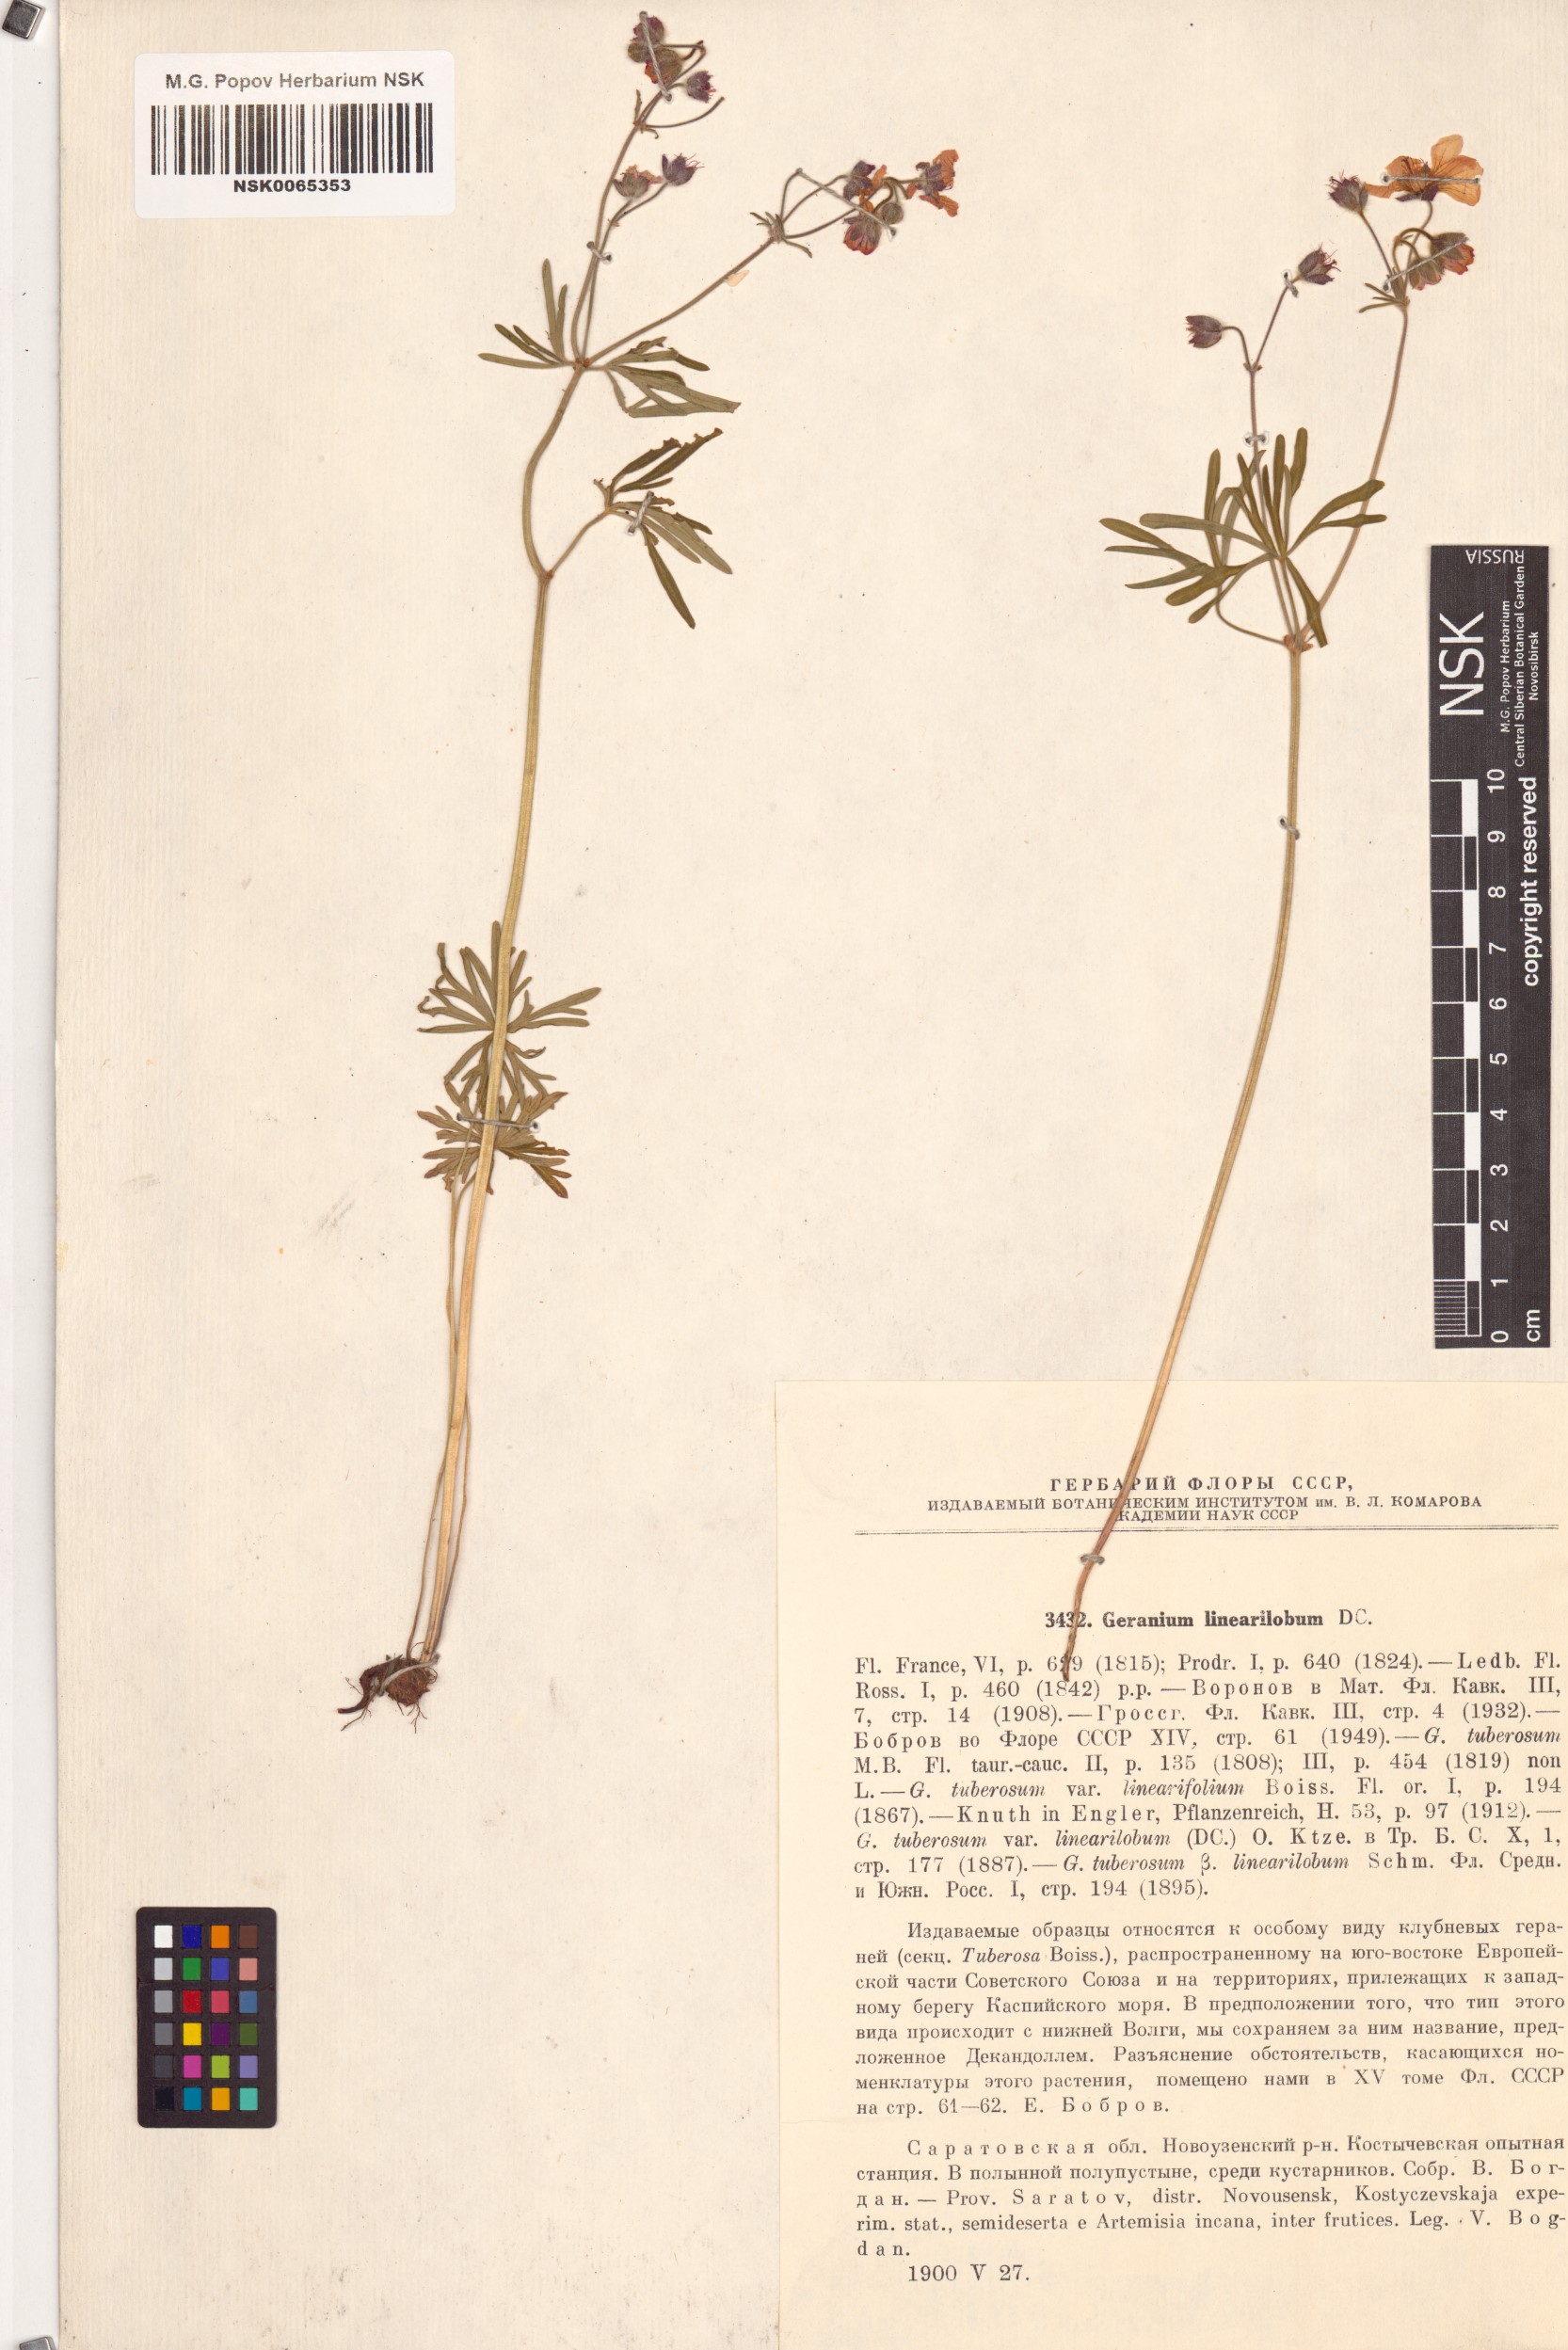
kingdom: Plantae
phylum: Tracheophyta
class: Magnoliopsida
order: Geraniales
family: Geraniaceae
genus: Geranium
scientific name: Geranium linearilobum
